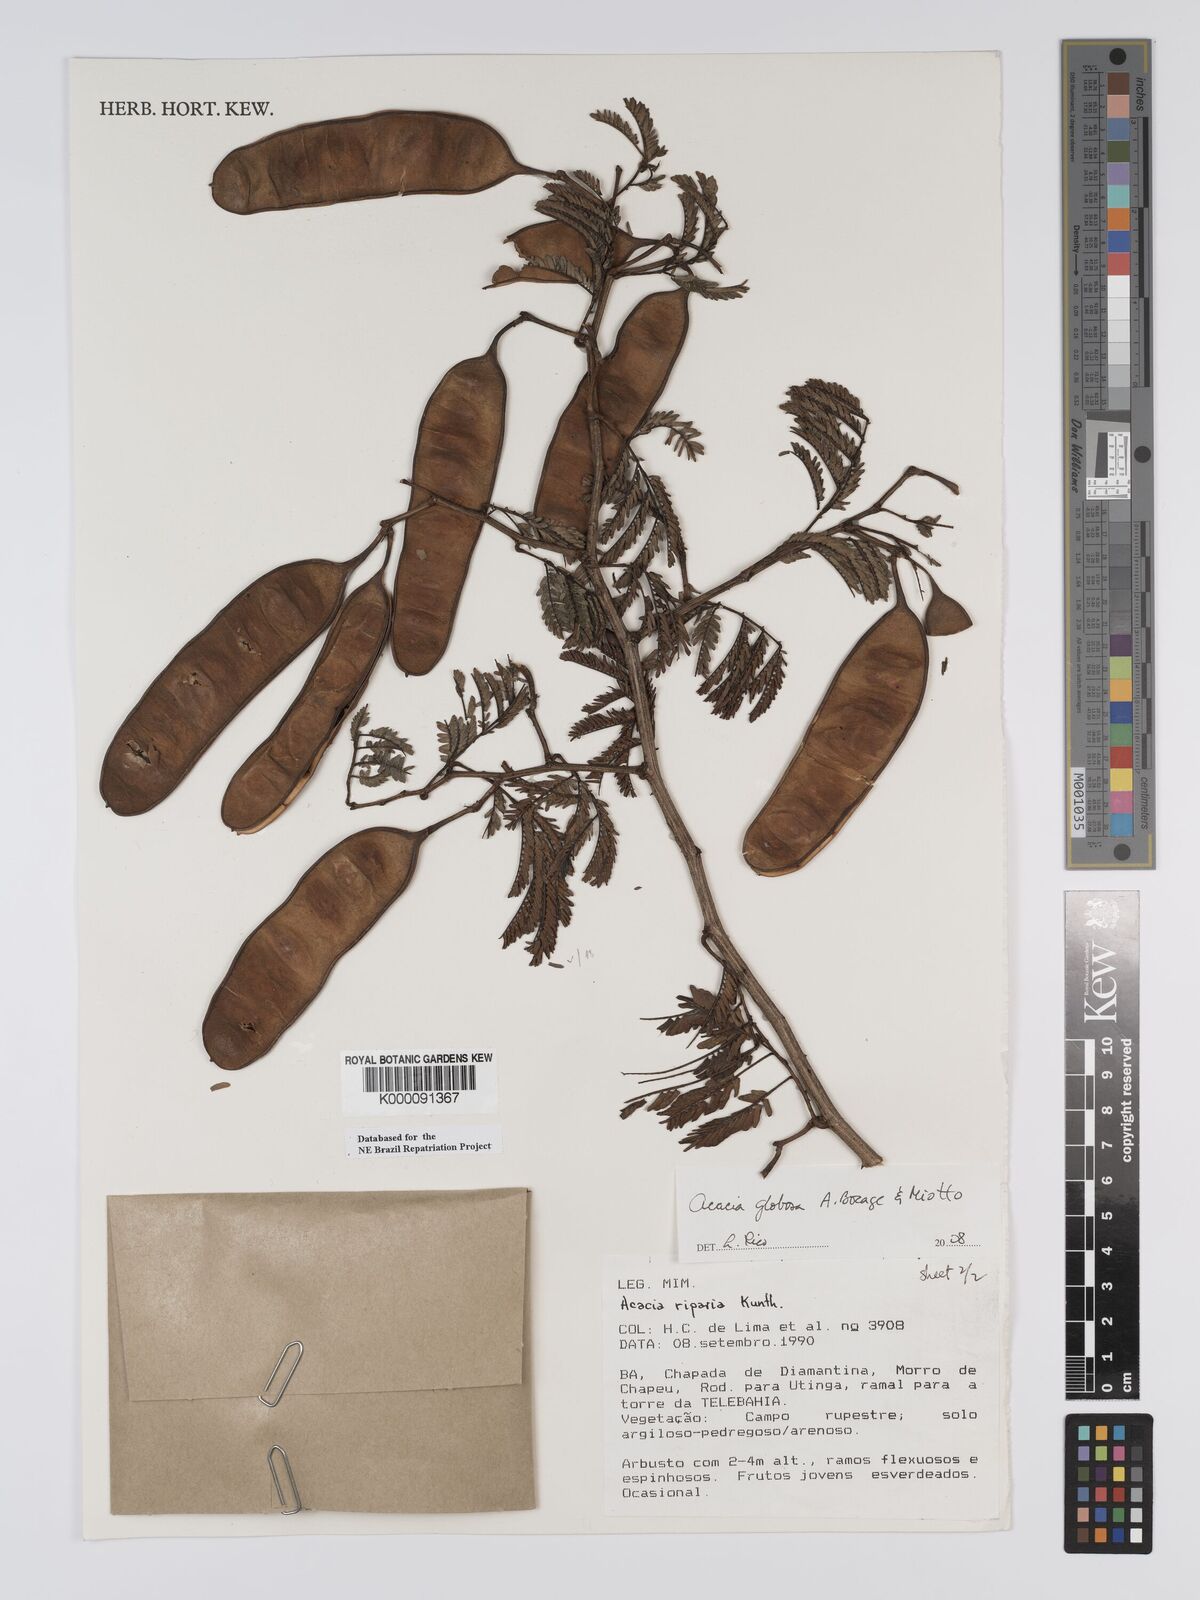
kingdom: Plantae
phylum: Tracheophyta
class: Magnoliopsida
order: Fabales
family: Fabaceae
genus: Senegalia
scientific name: Senegalia globosa
